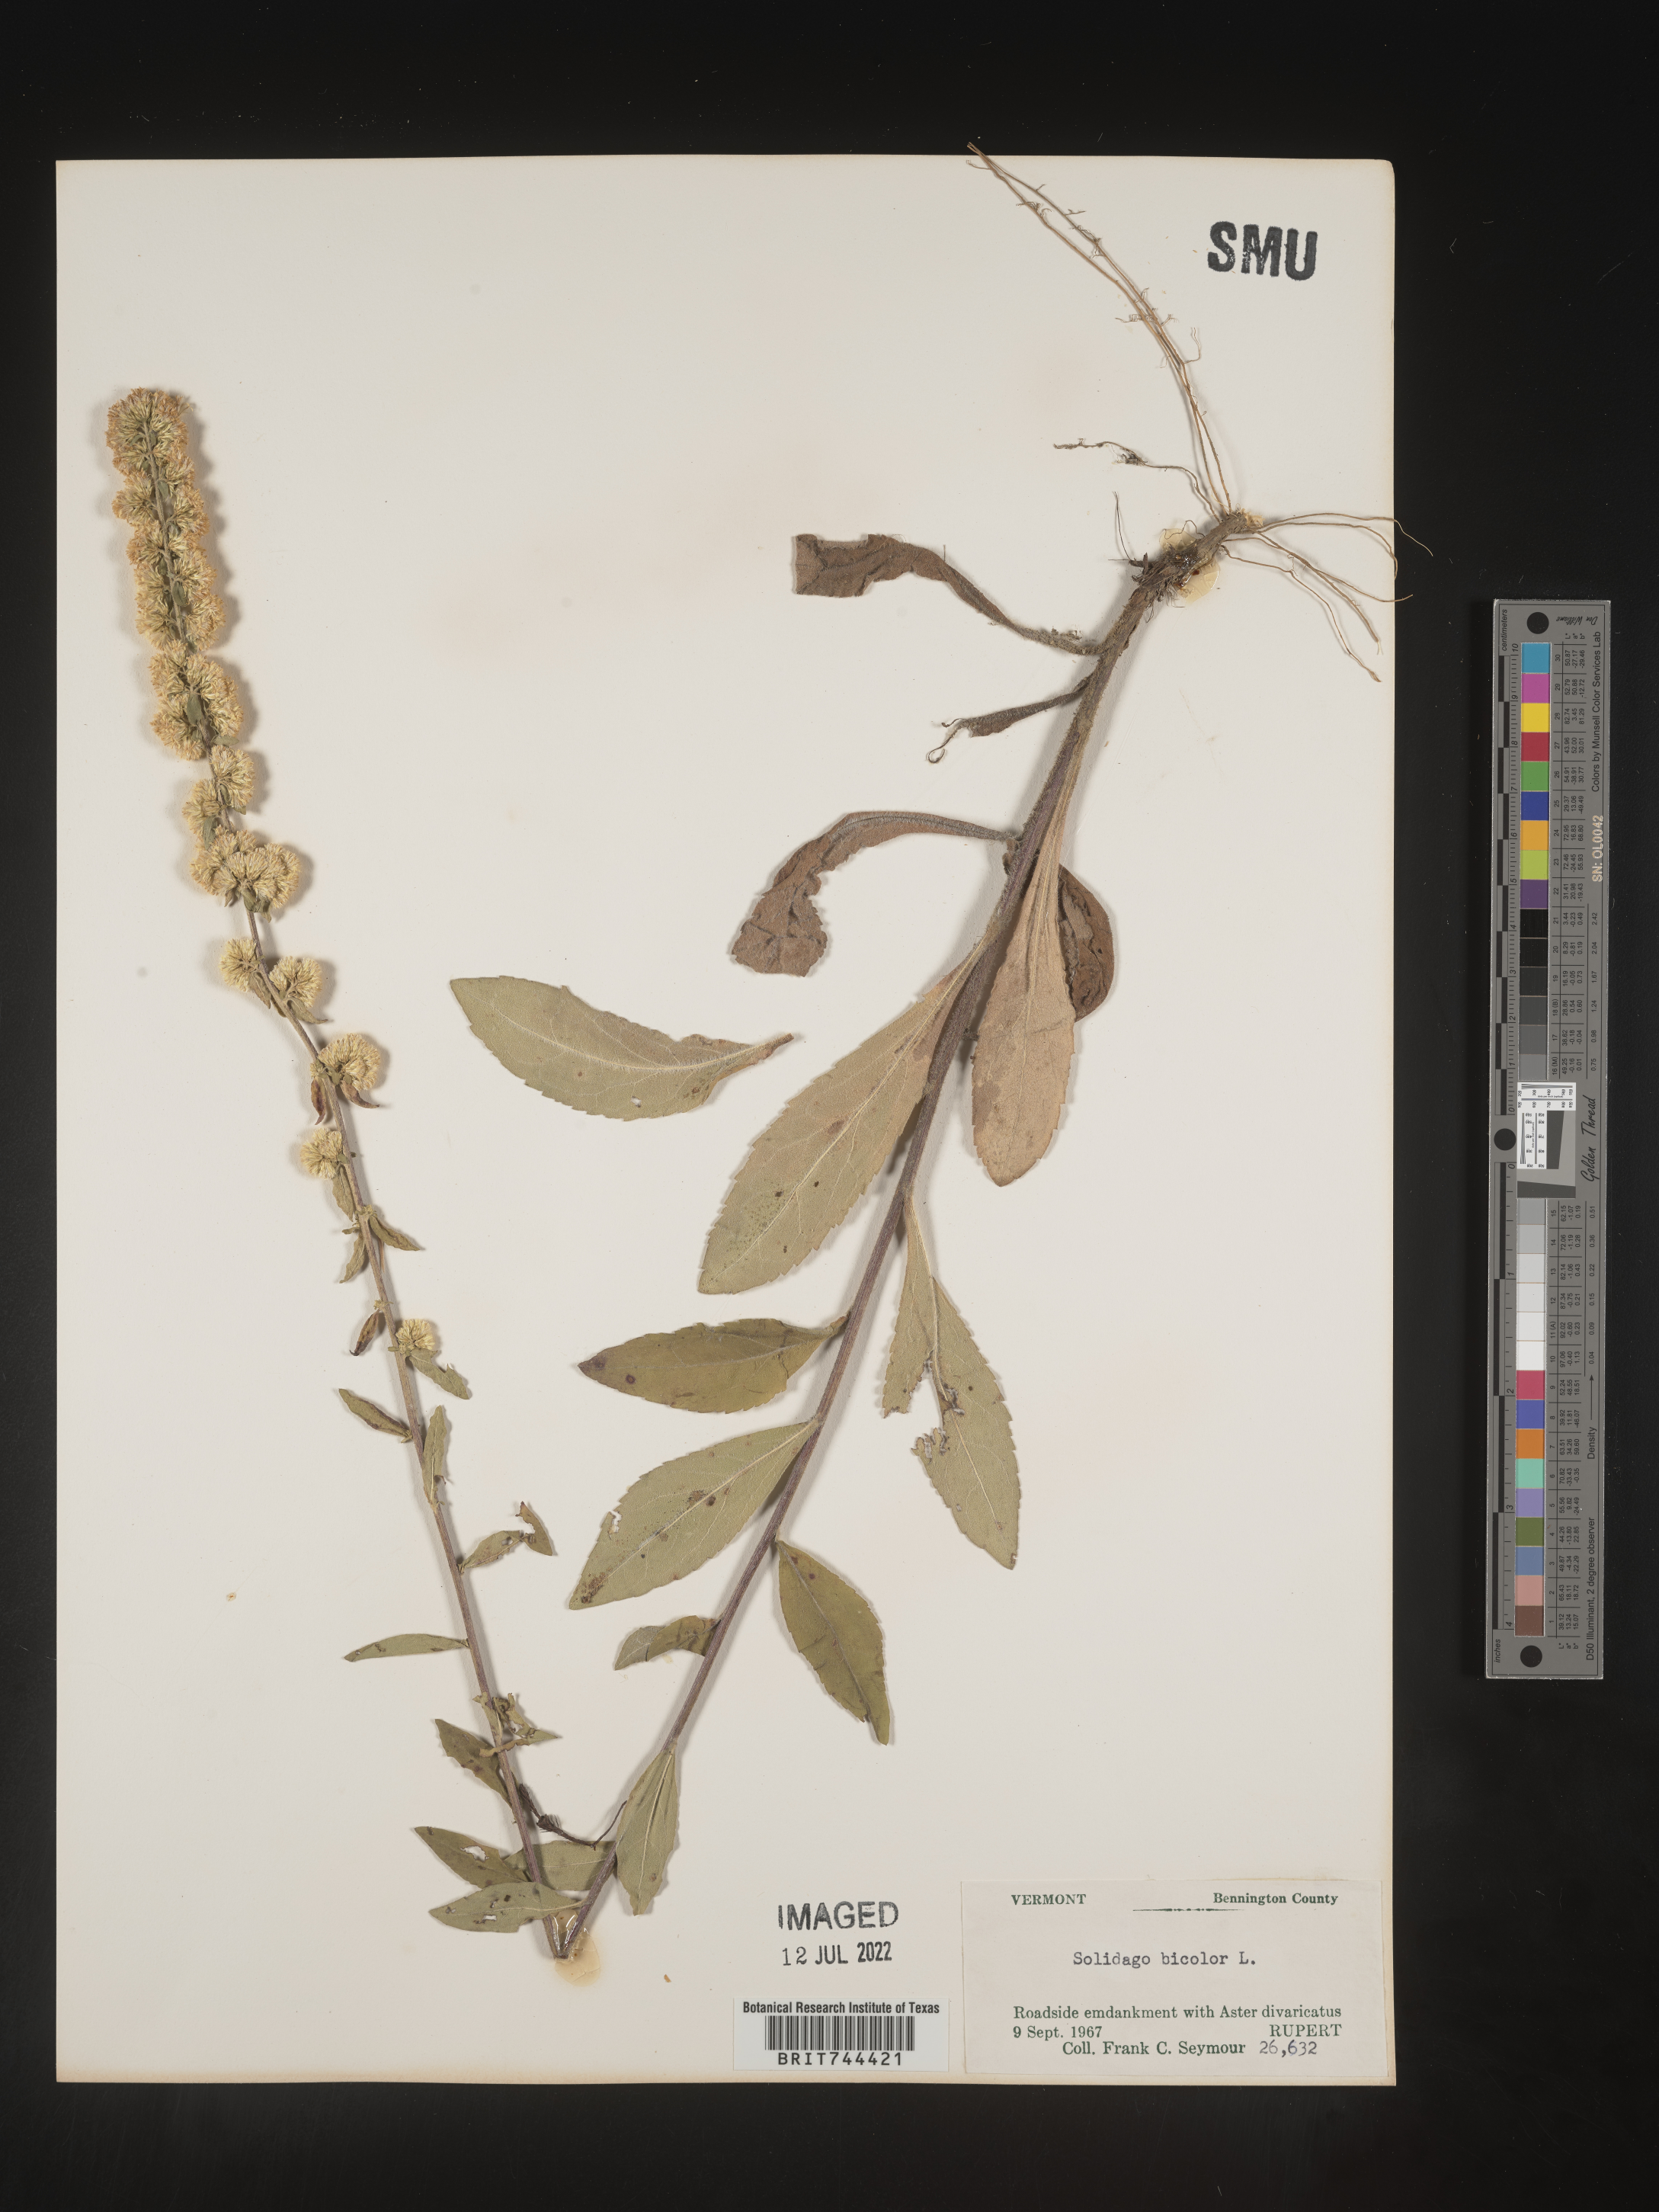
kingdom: Plantae
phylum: Tracheophyta
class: Magnoliopsida
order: Asterales
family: Asteraceae
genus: Solidago
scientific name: Solidago bicolor
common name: Silverrod
